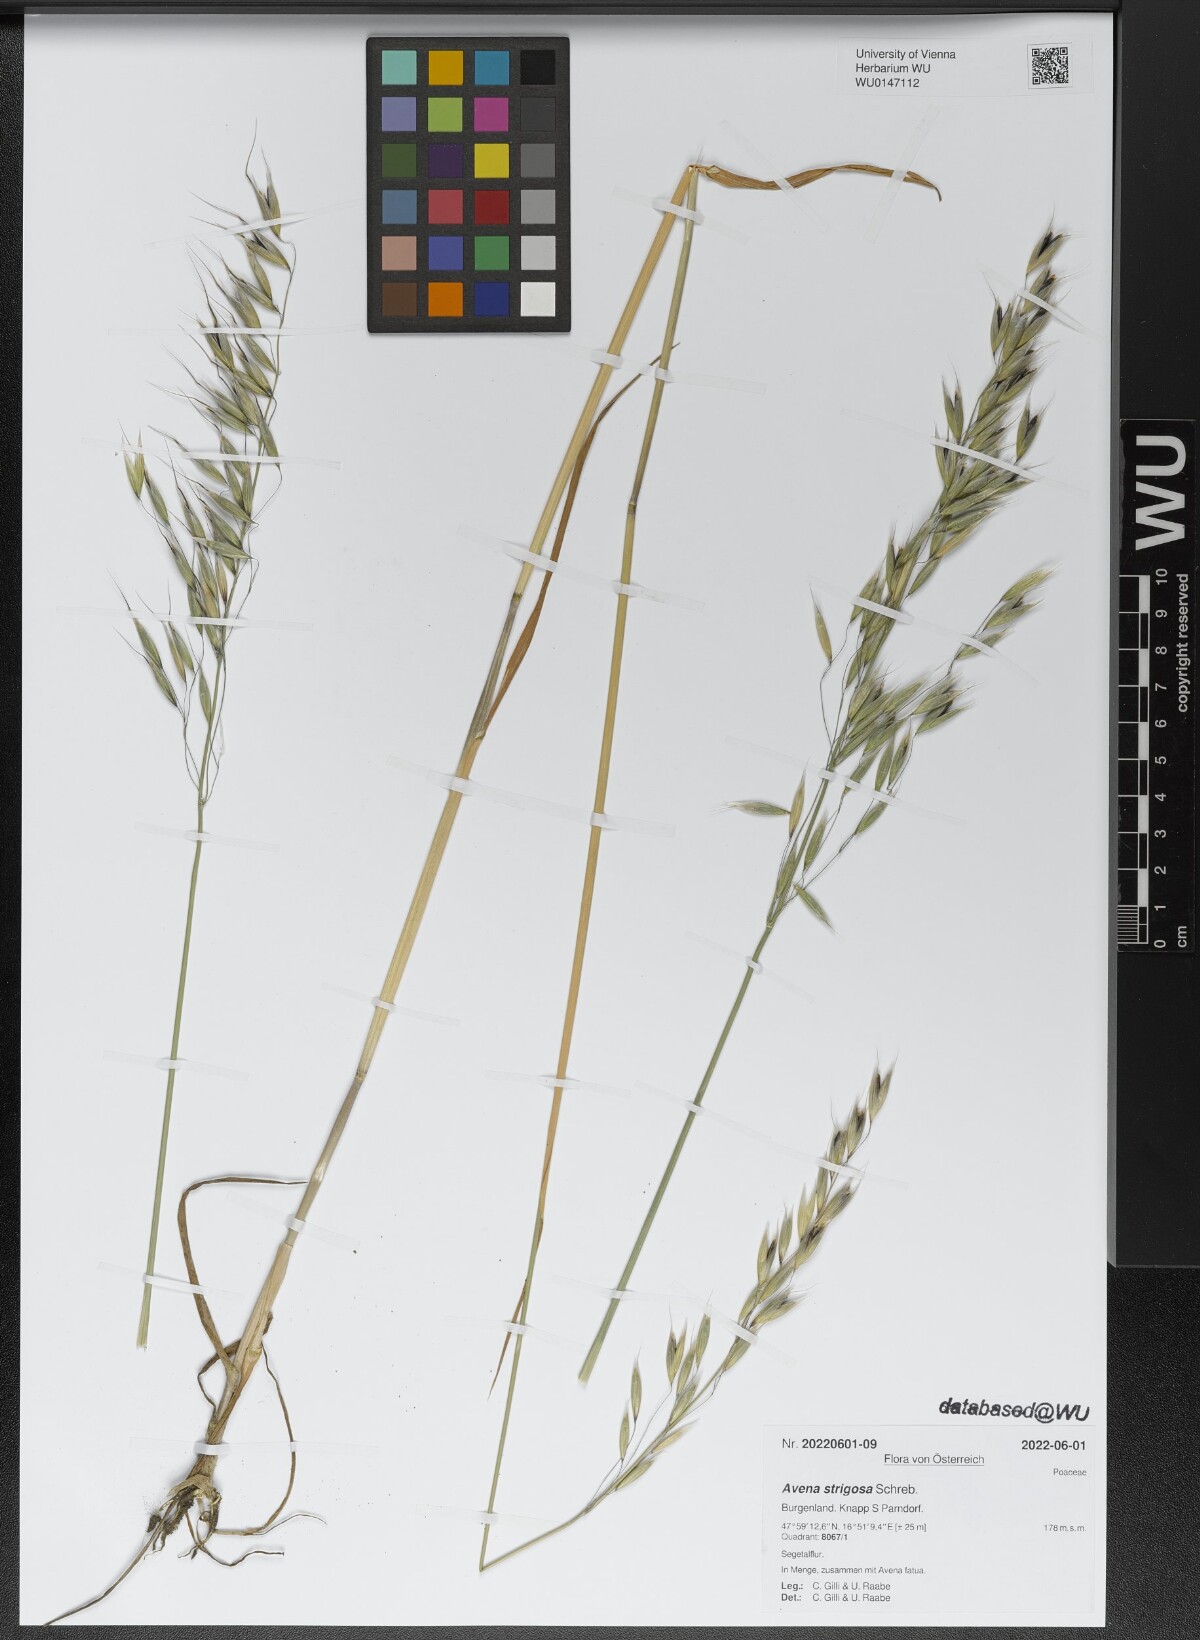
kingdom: Plantae
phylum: Tracheophyta
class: Liliopsida
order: Poales
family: Poaceae
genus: Avena
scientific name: Avena strigosa
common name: Bristle oat
